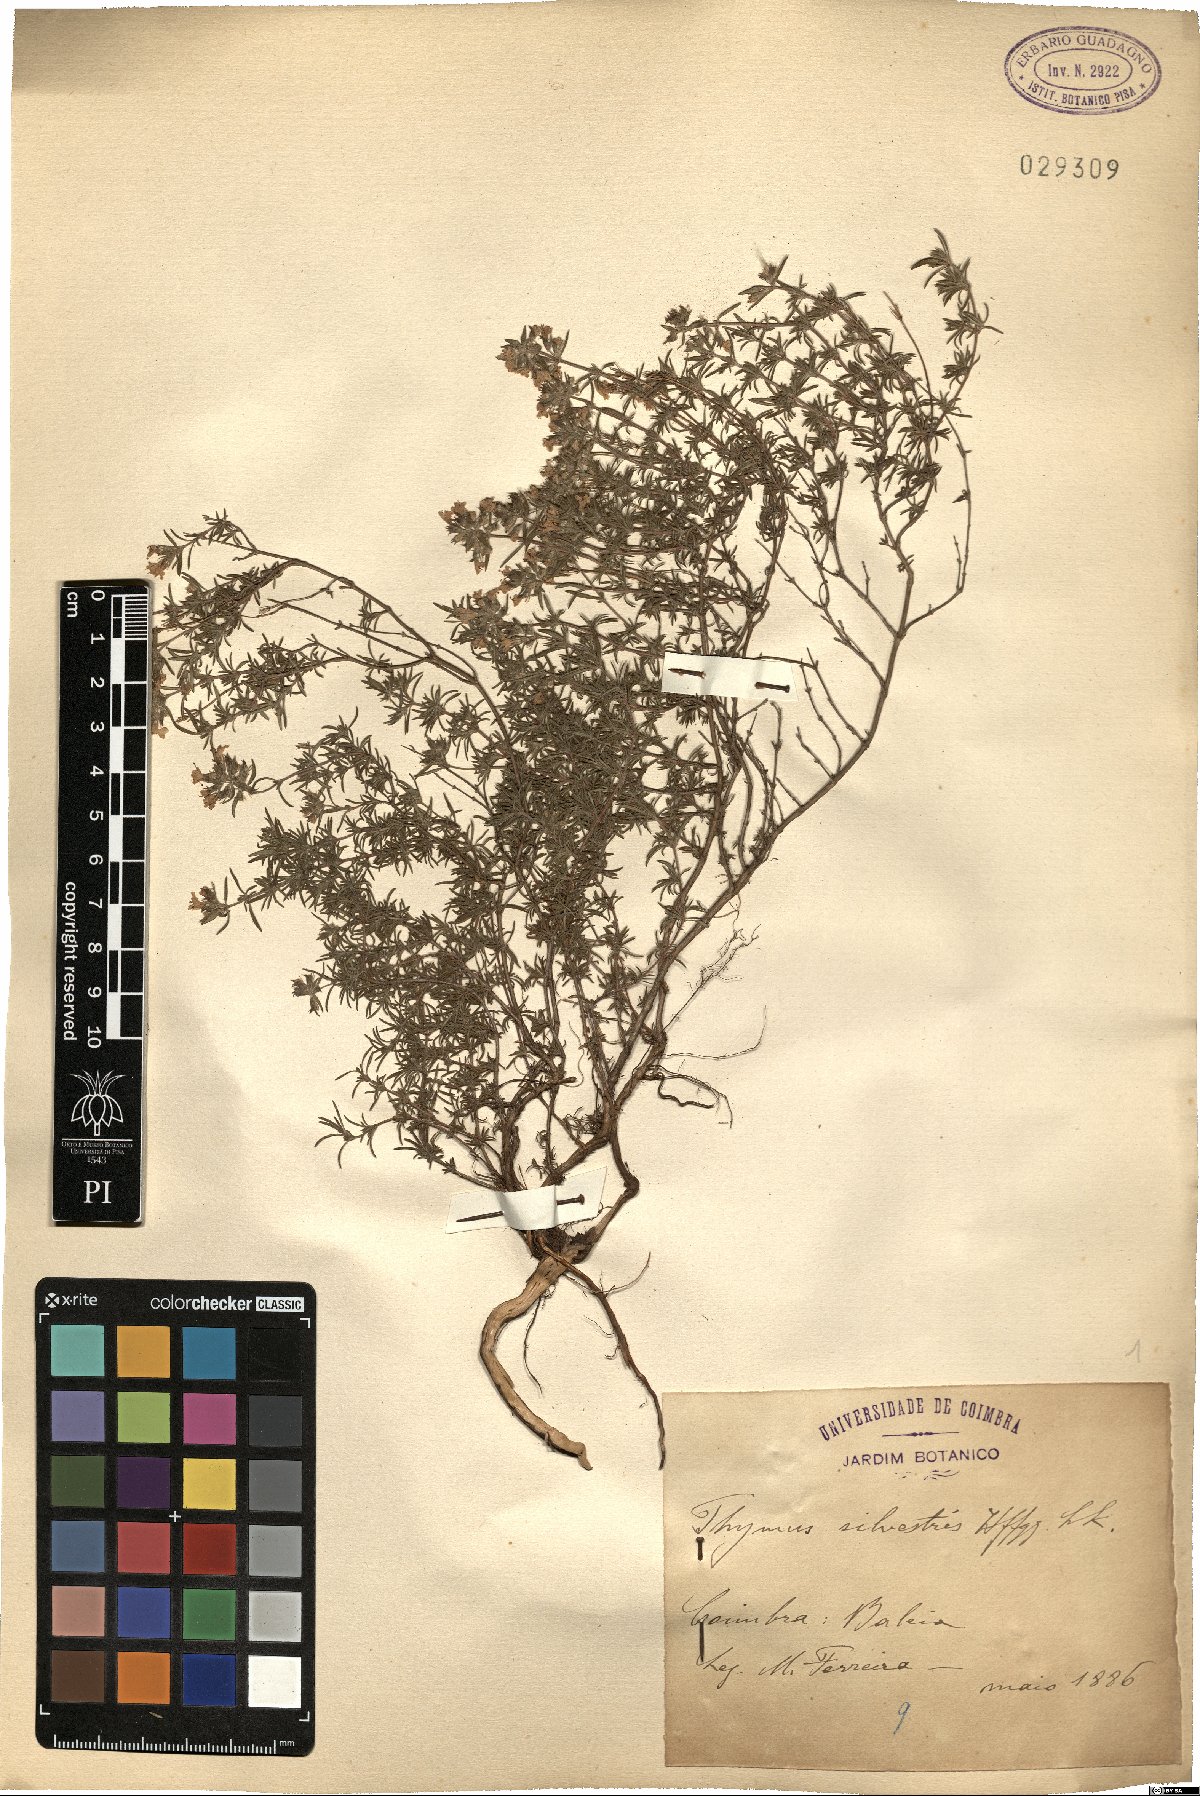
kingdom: Plantae
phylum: Tracheophyta
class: Magnoliopsida
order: Lamiales
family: Lamiaceae
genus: Thymus
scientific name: Thymus zygis
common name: White thyme
